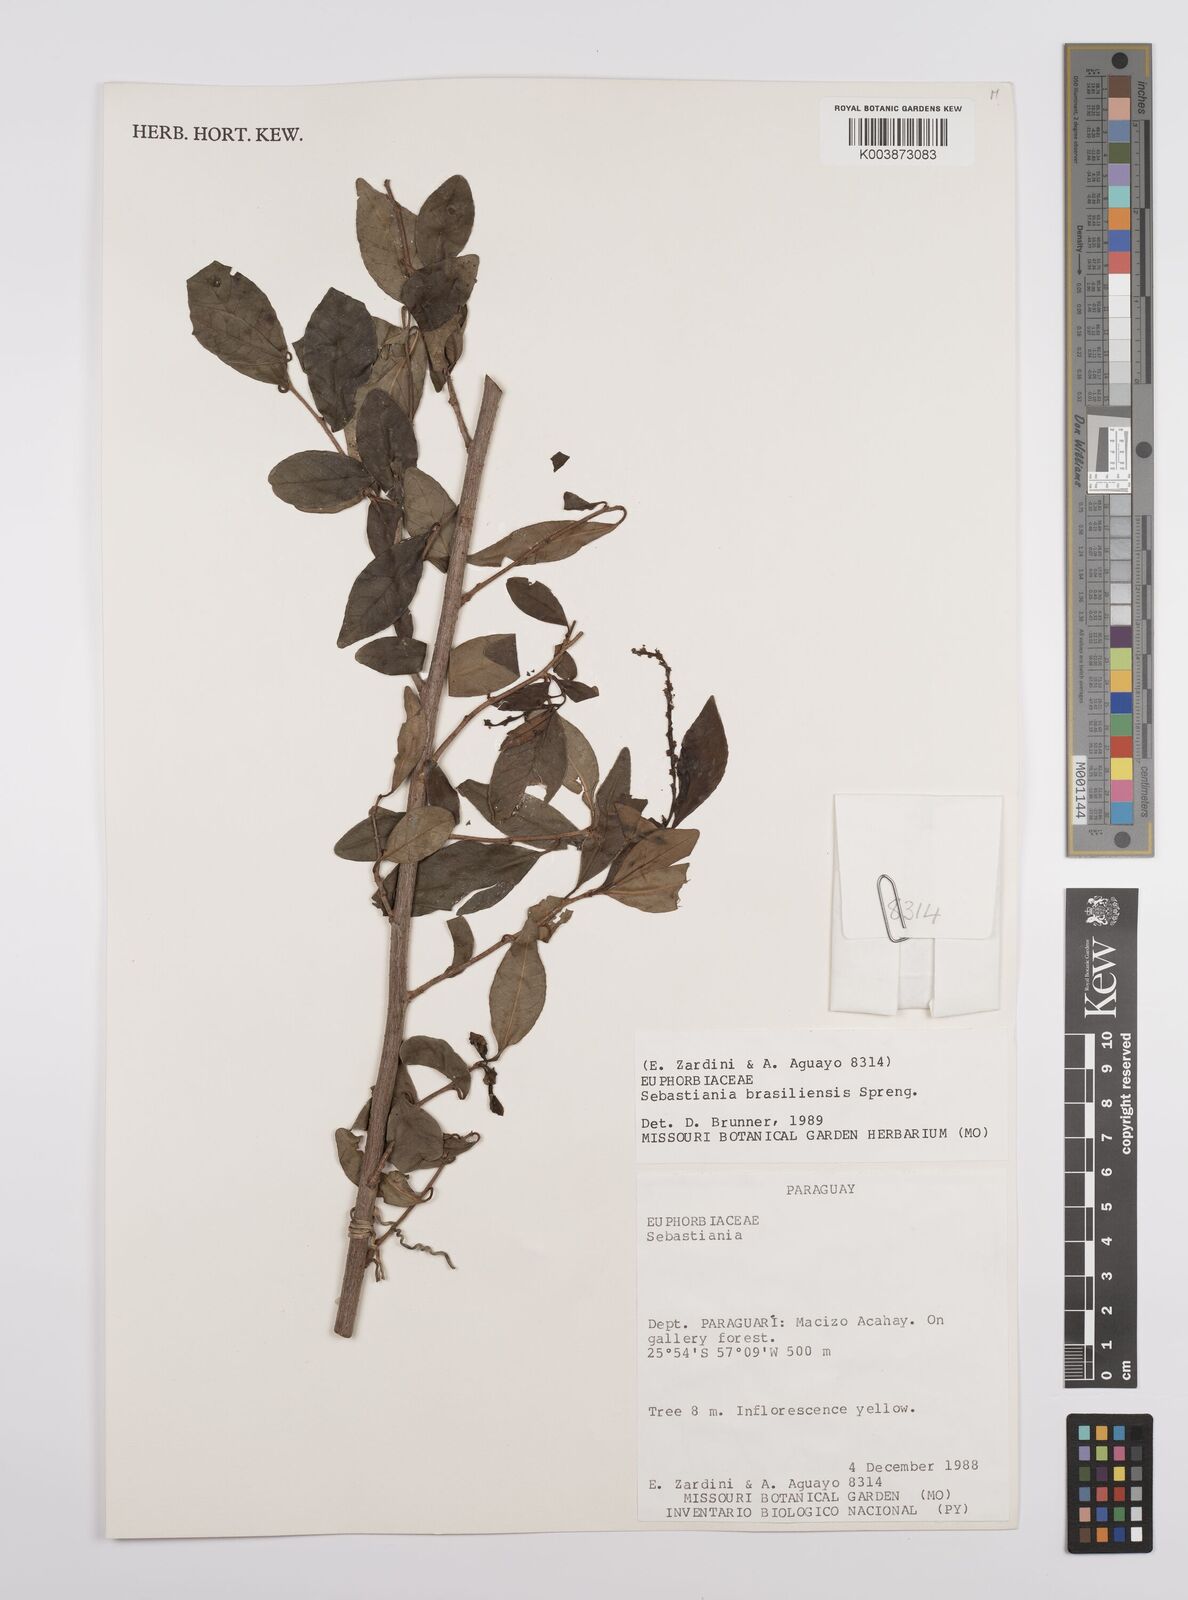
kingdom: Plantae
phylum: Tracheophyta
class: Magnoliopsida
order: Malpighiales
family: Euphorbiaceae
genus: Sebastiania
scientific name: Sebastiania brasiliensis
